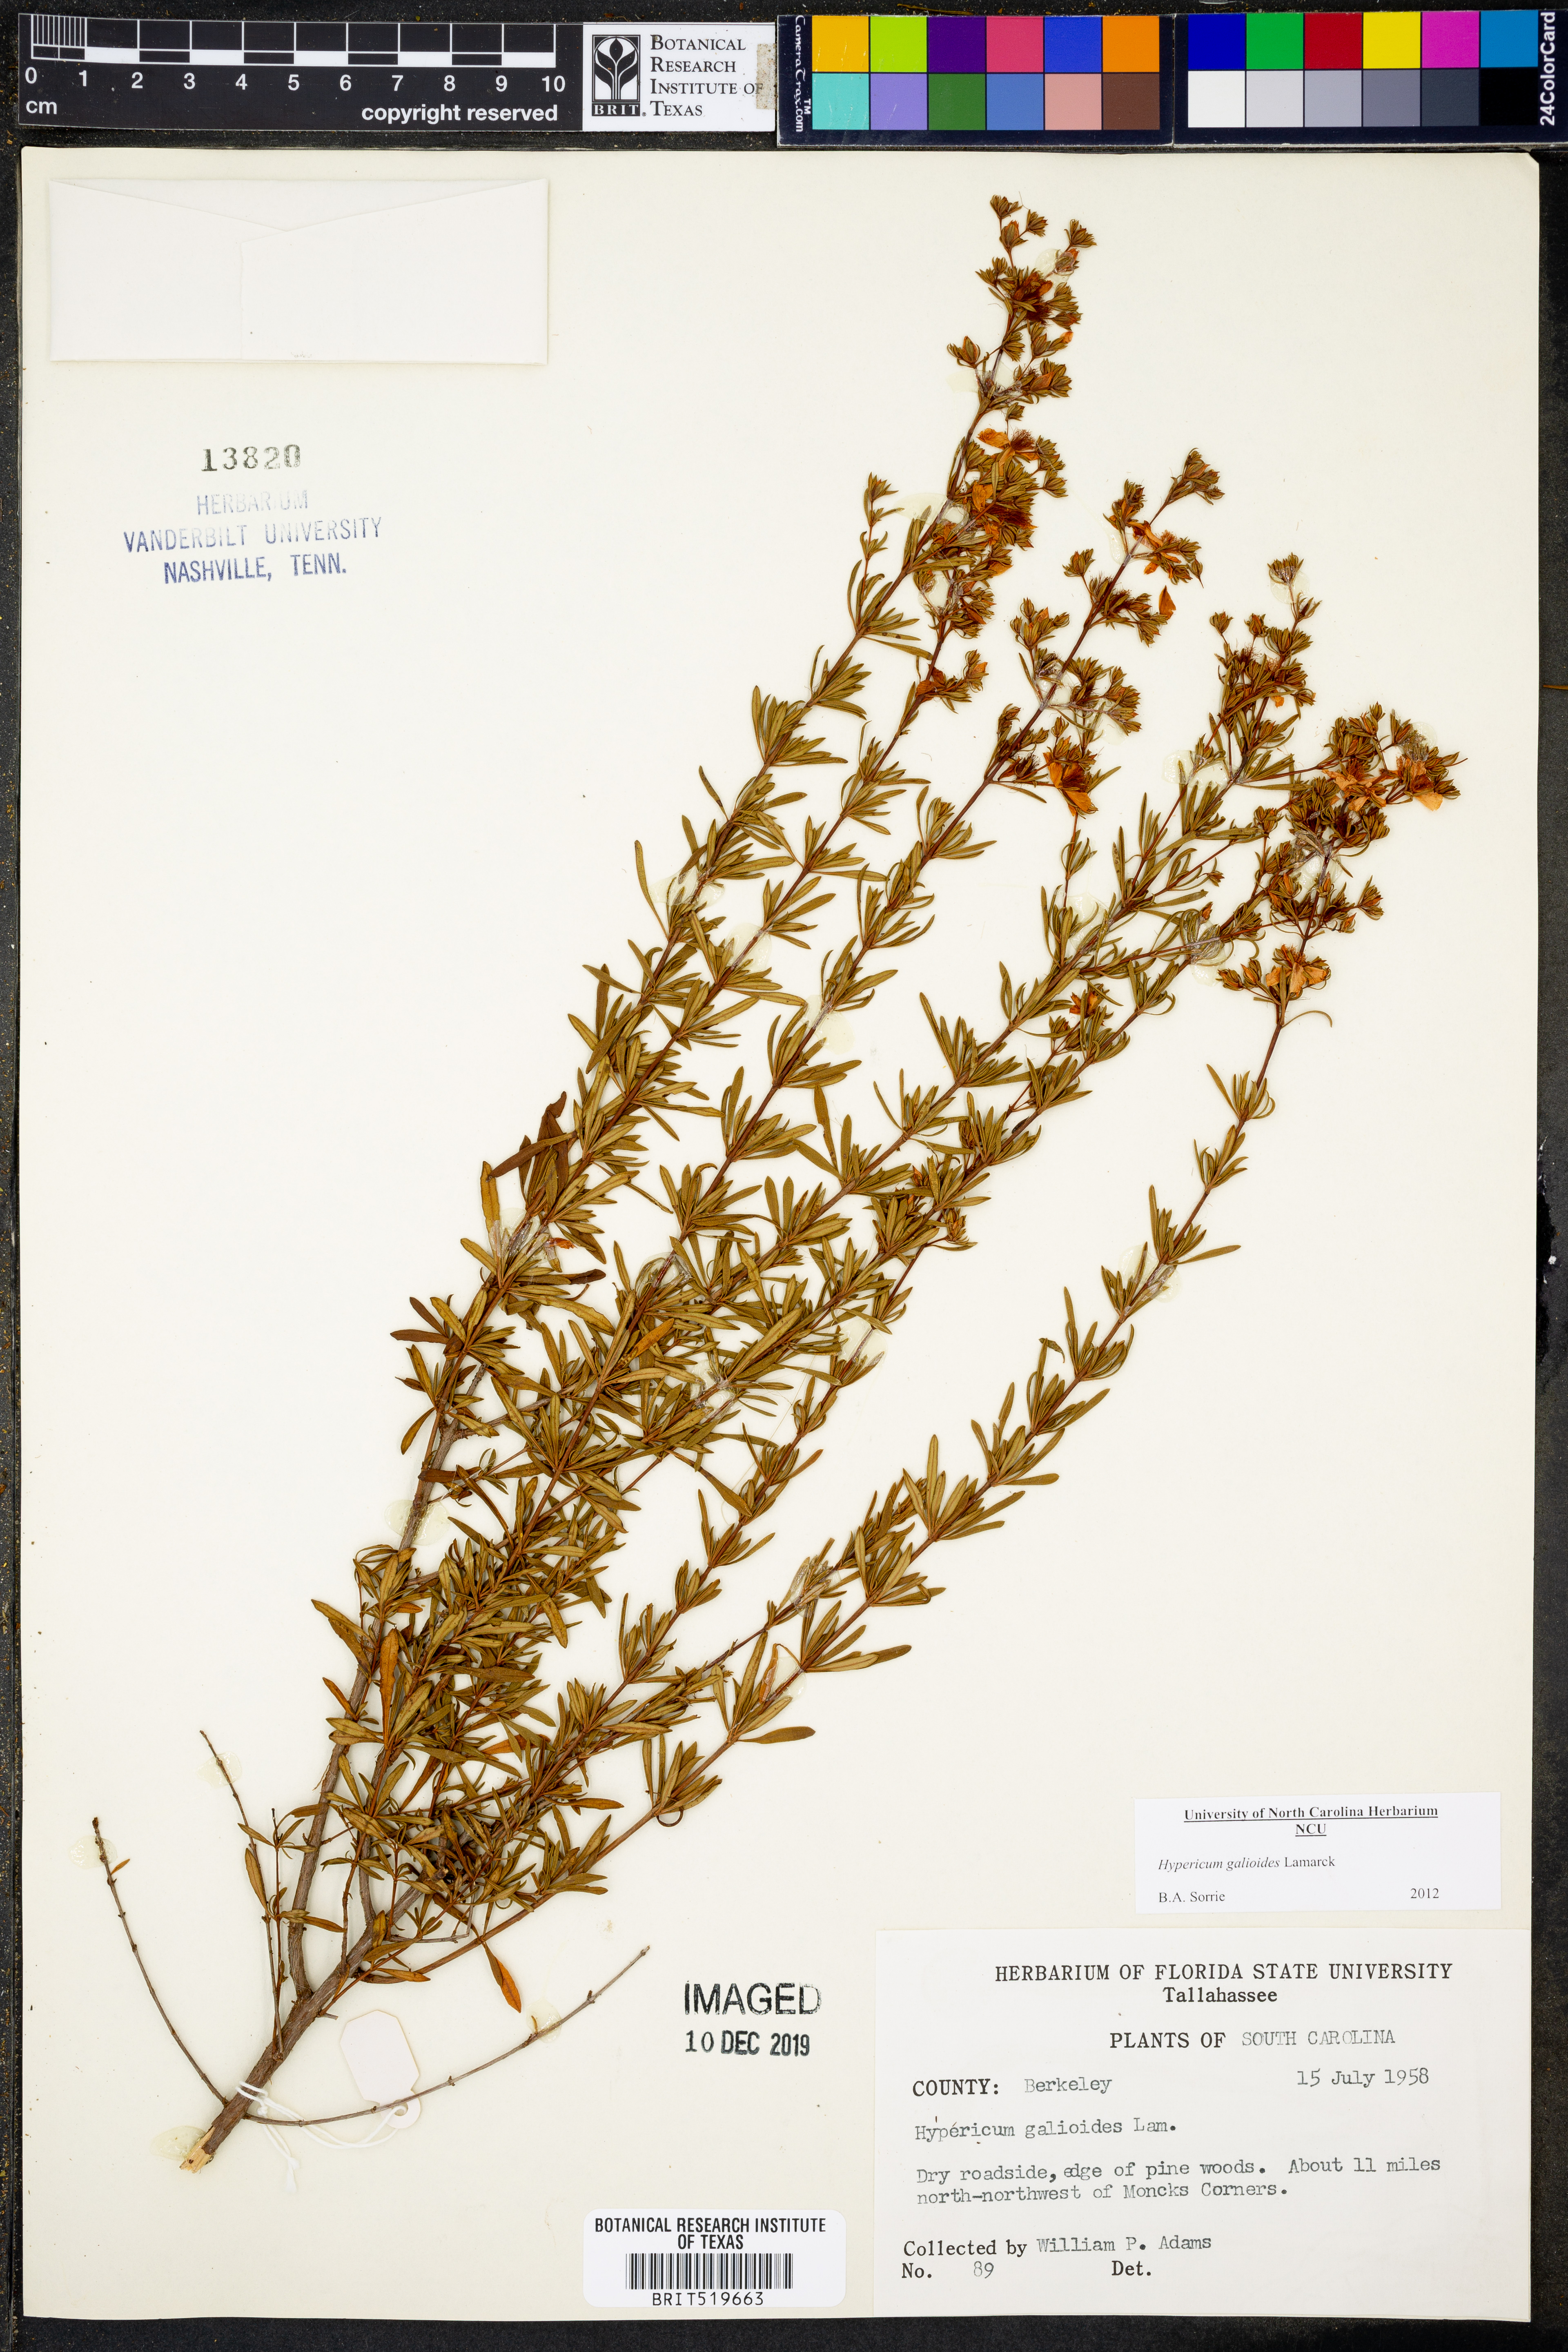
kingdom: Plantae
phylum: Tracheophyta
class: Magnoliopsida
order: Malpighiales
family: Hypericaceae
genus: Hypericum
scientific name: Hypericum galioides
